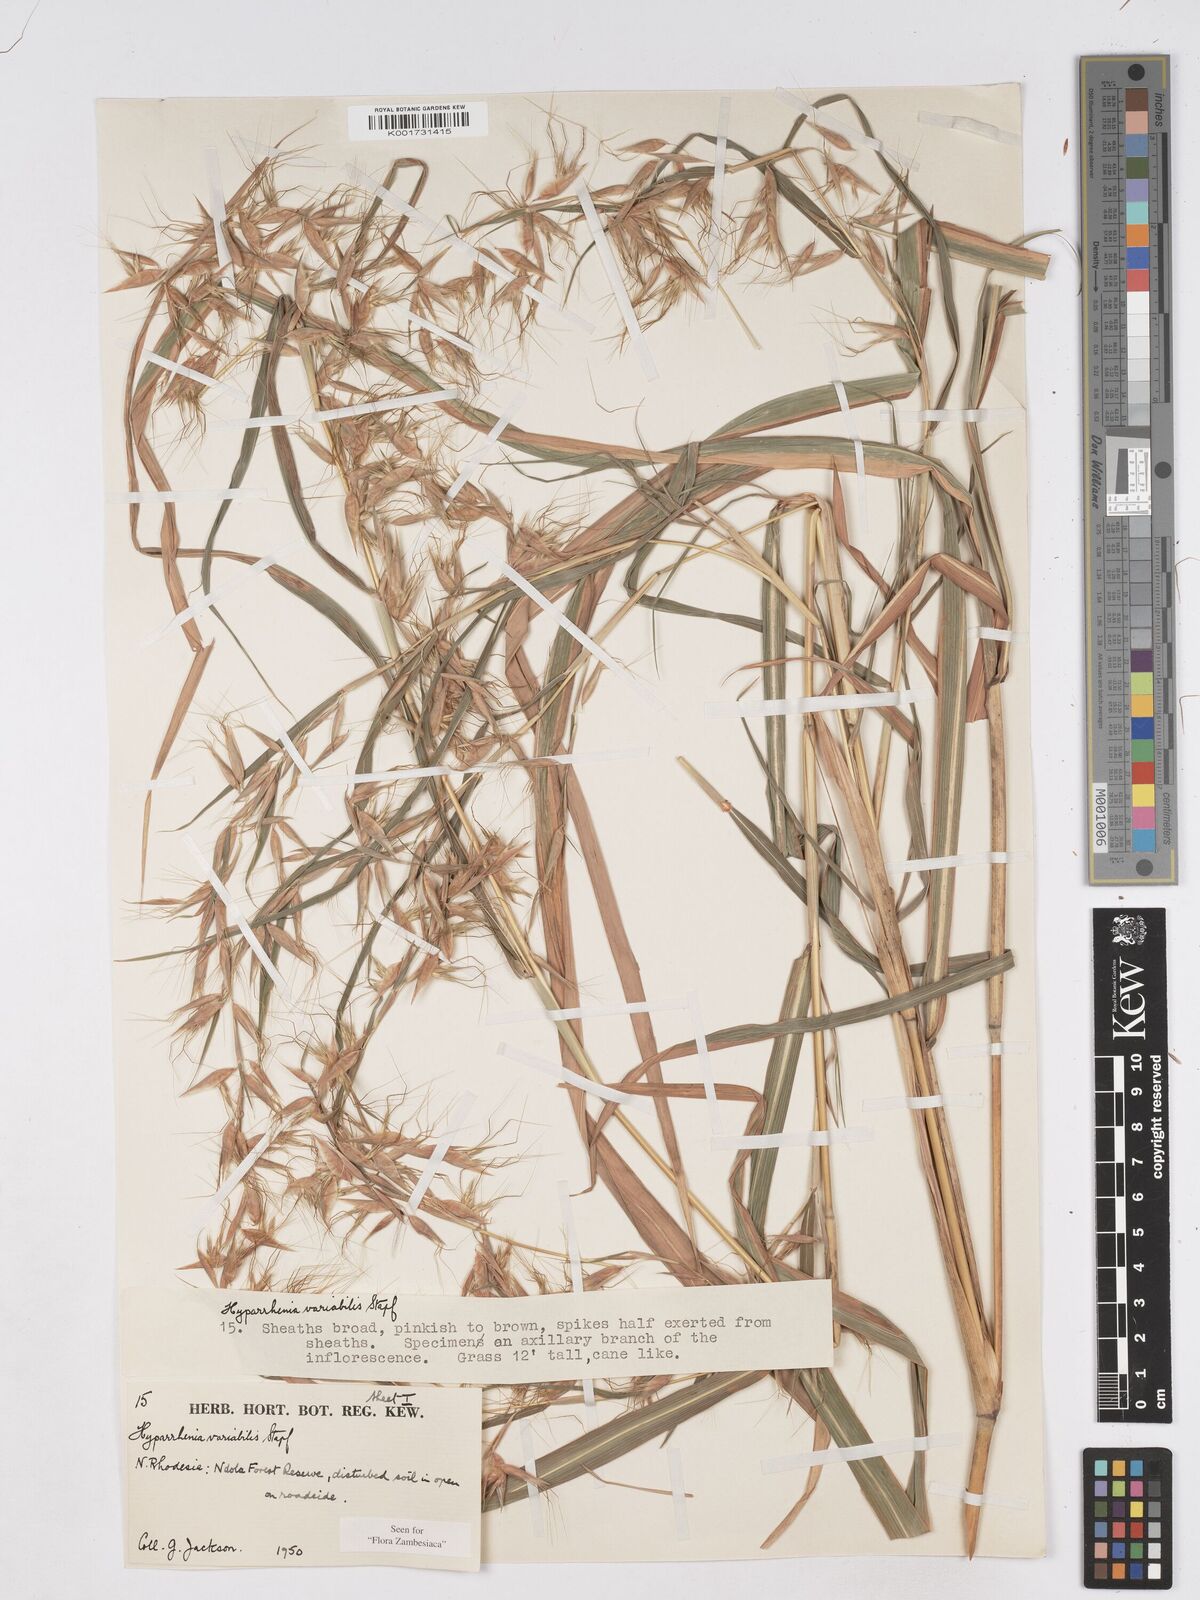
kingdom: Plantae
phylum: Tracheophyta
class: Liliopsida
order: Poales
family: Poaceae
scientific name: Poaceae
